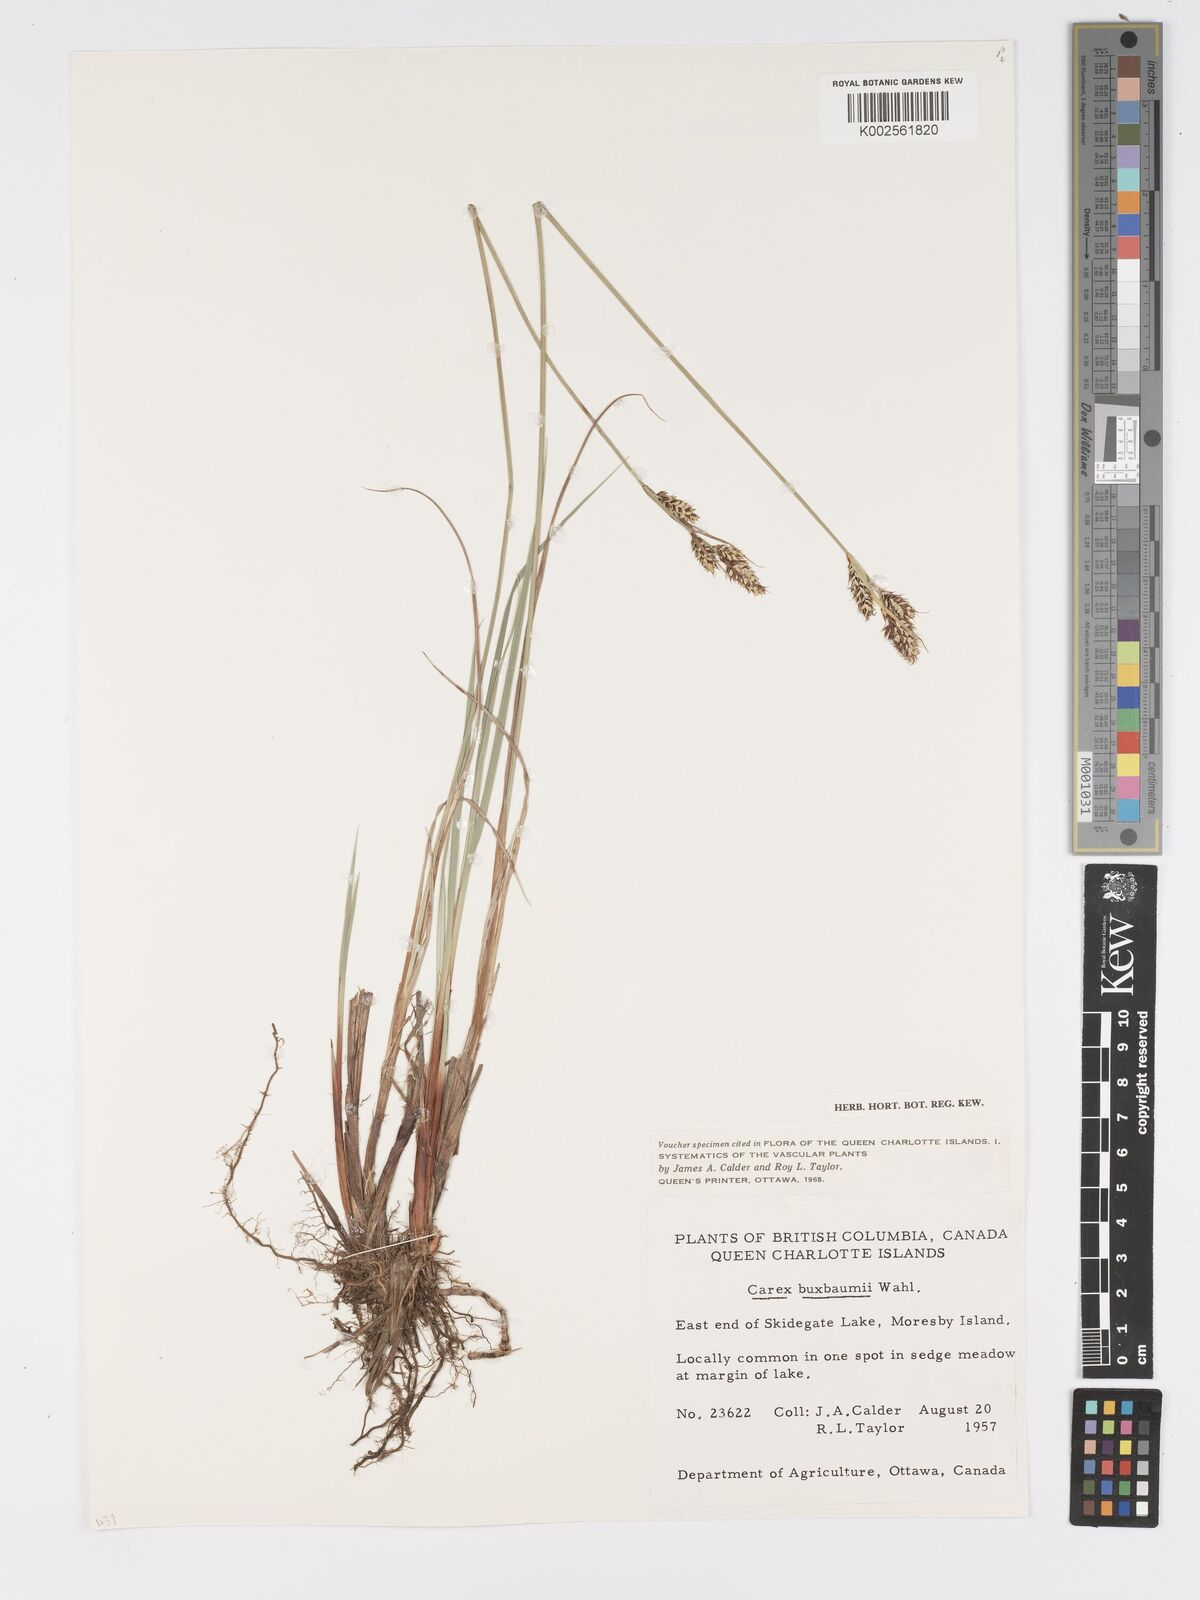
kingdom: Plantae
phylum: Tracheophyta
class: Liliopsida
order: Poales
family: Cyperaceae
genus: Carex
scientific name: Carex buxbaumii
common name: Club sedge
